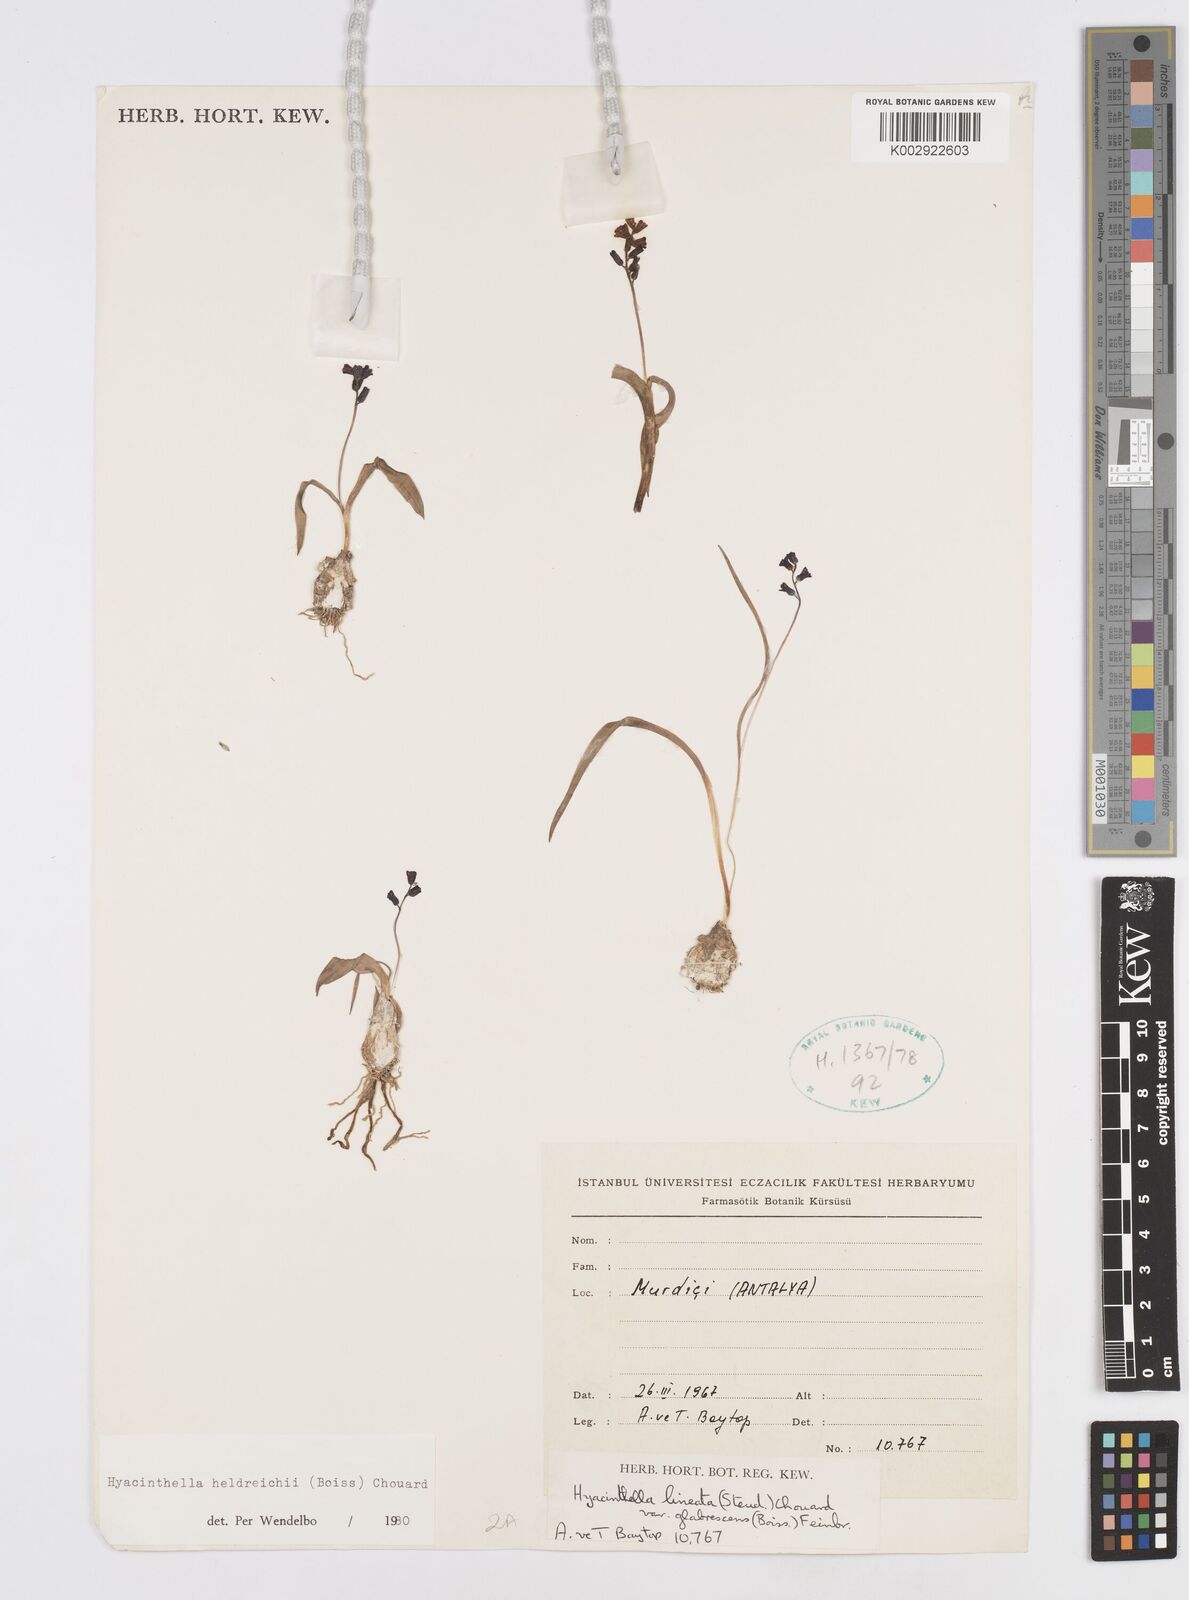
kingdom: Plantae
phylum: Tracheophyta
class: Liliopsida
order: Asparagales
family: Asparagaceae
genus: Hyacinthella
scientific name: Hyacinthella heldreichii
